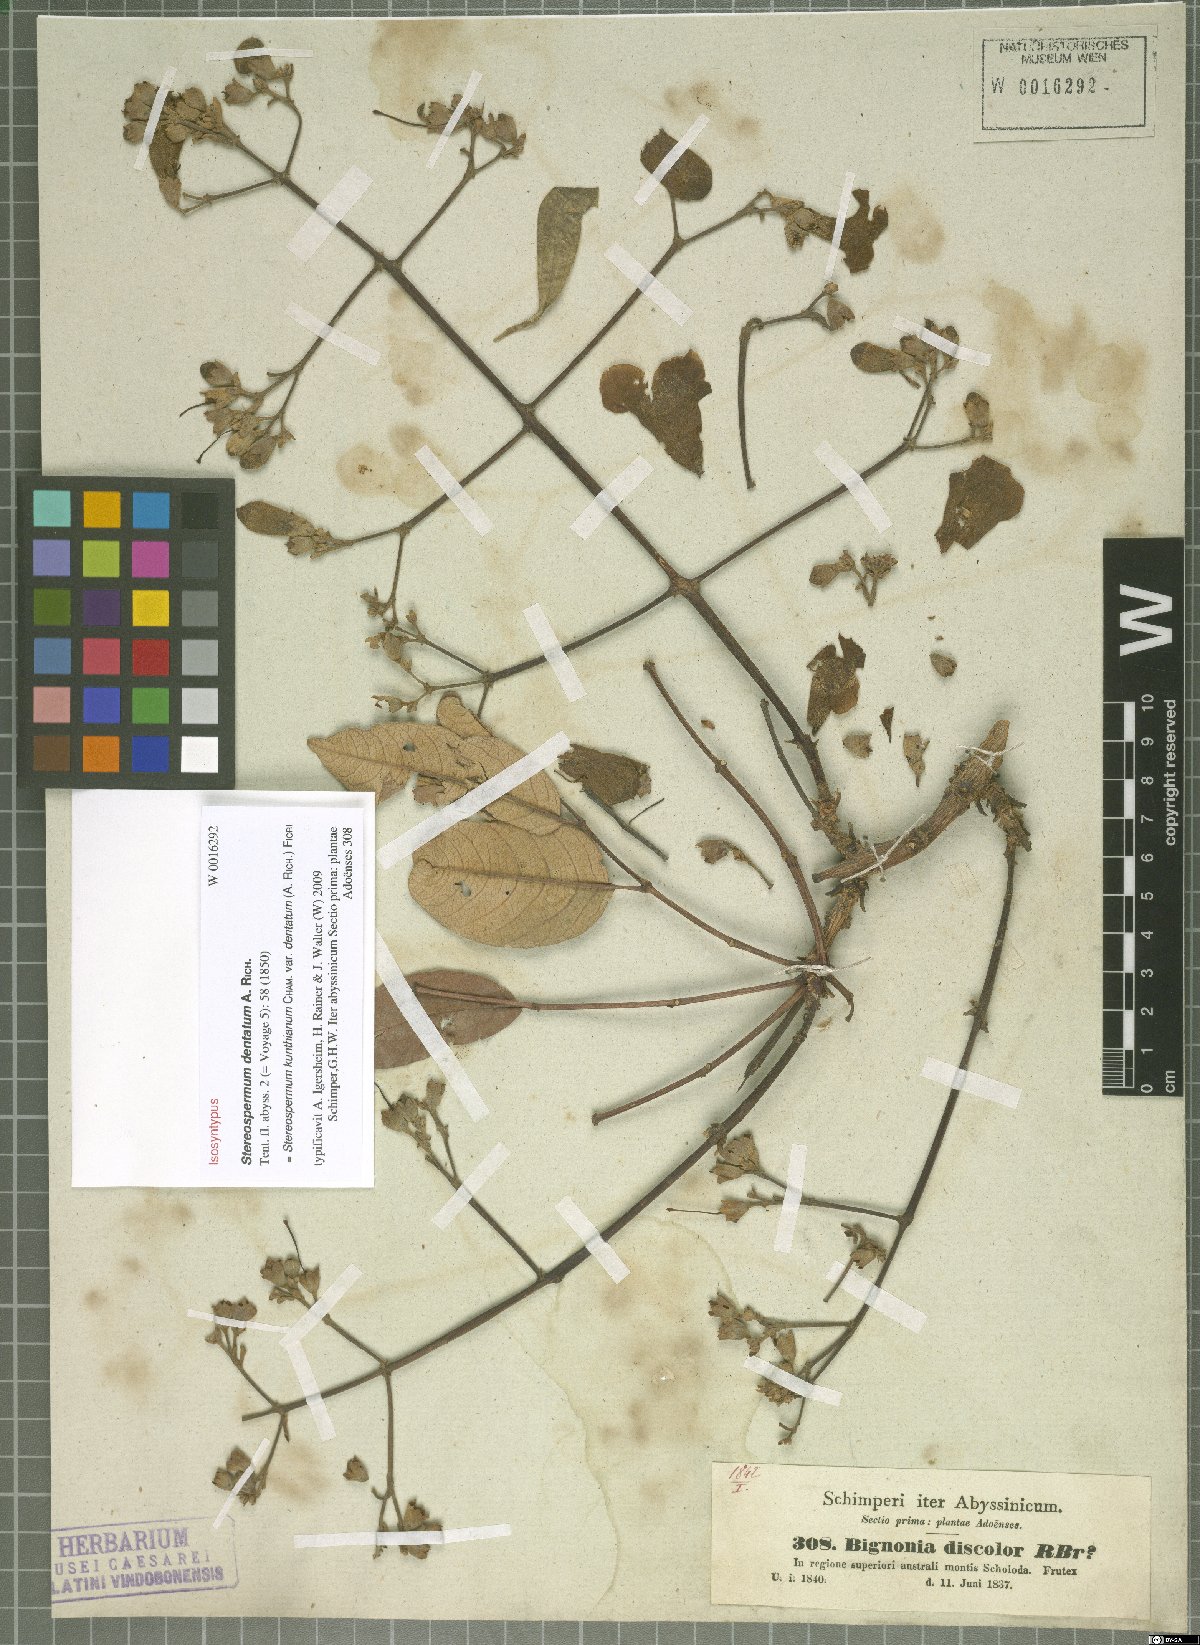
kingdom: Plantae
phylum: Tracheophyta
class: Magnoliopsida
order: Lamiales
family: Bignoniaceae
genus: Stereospermum
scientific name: Stereospermum kunthianum
